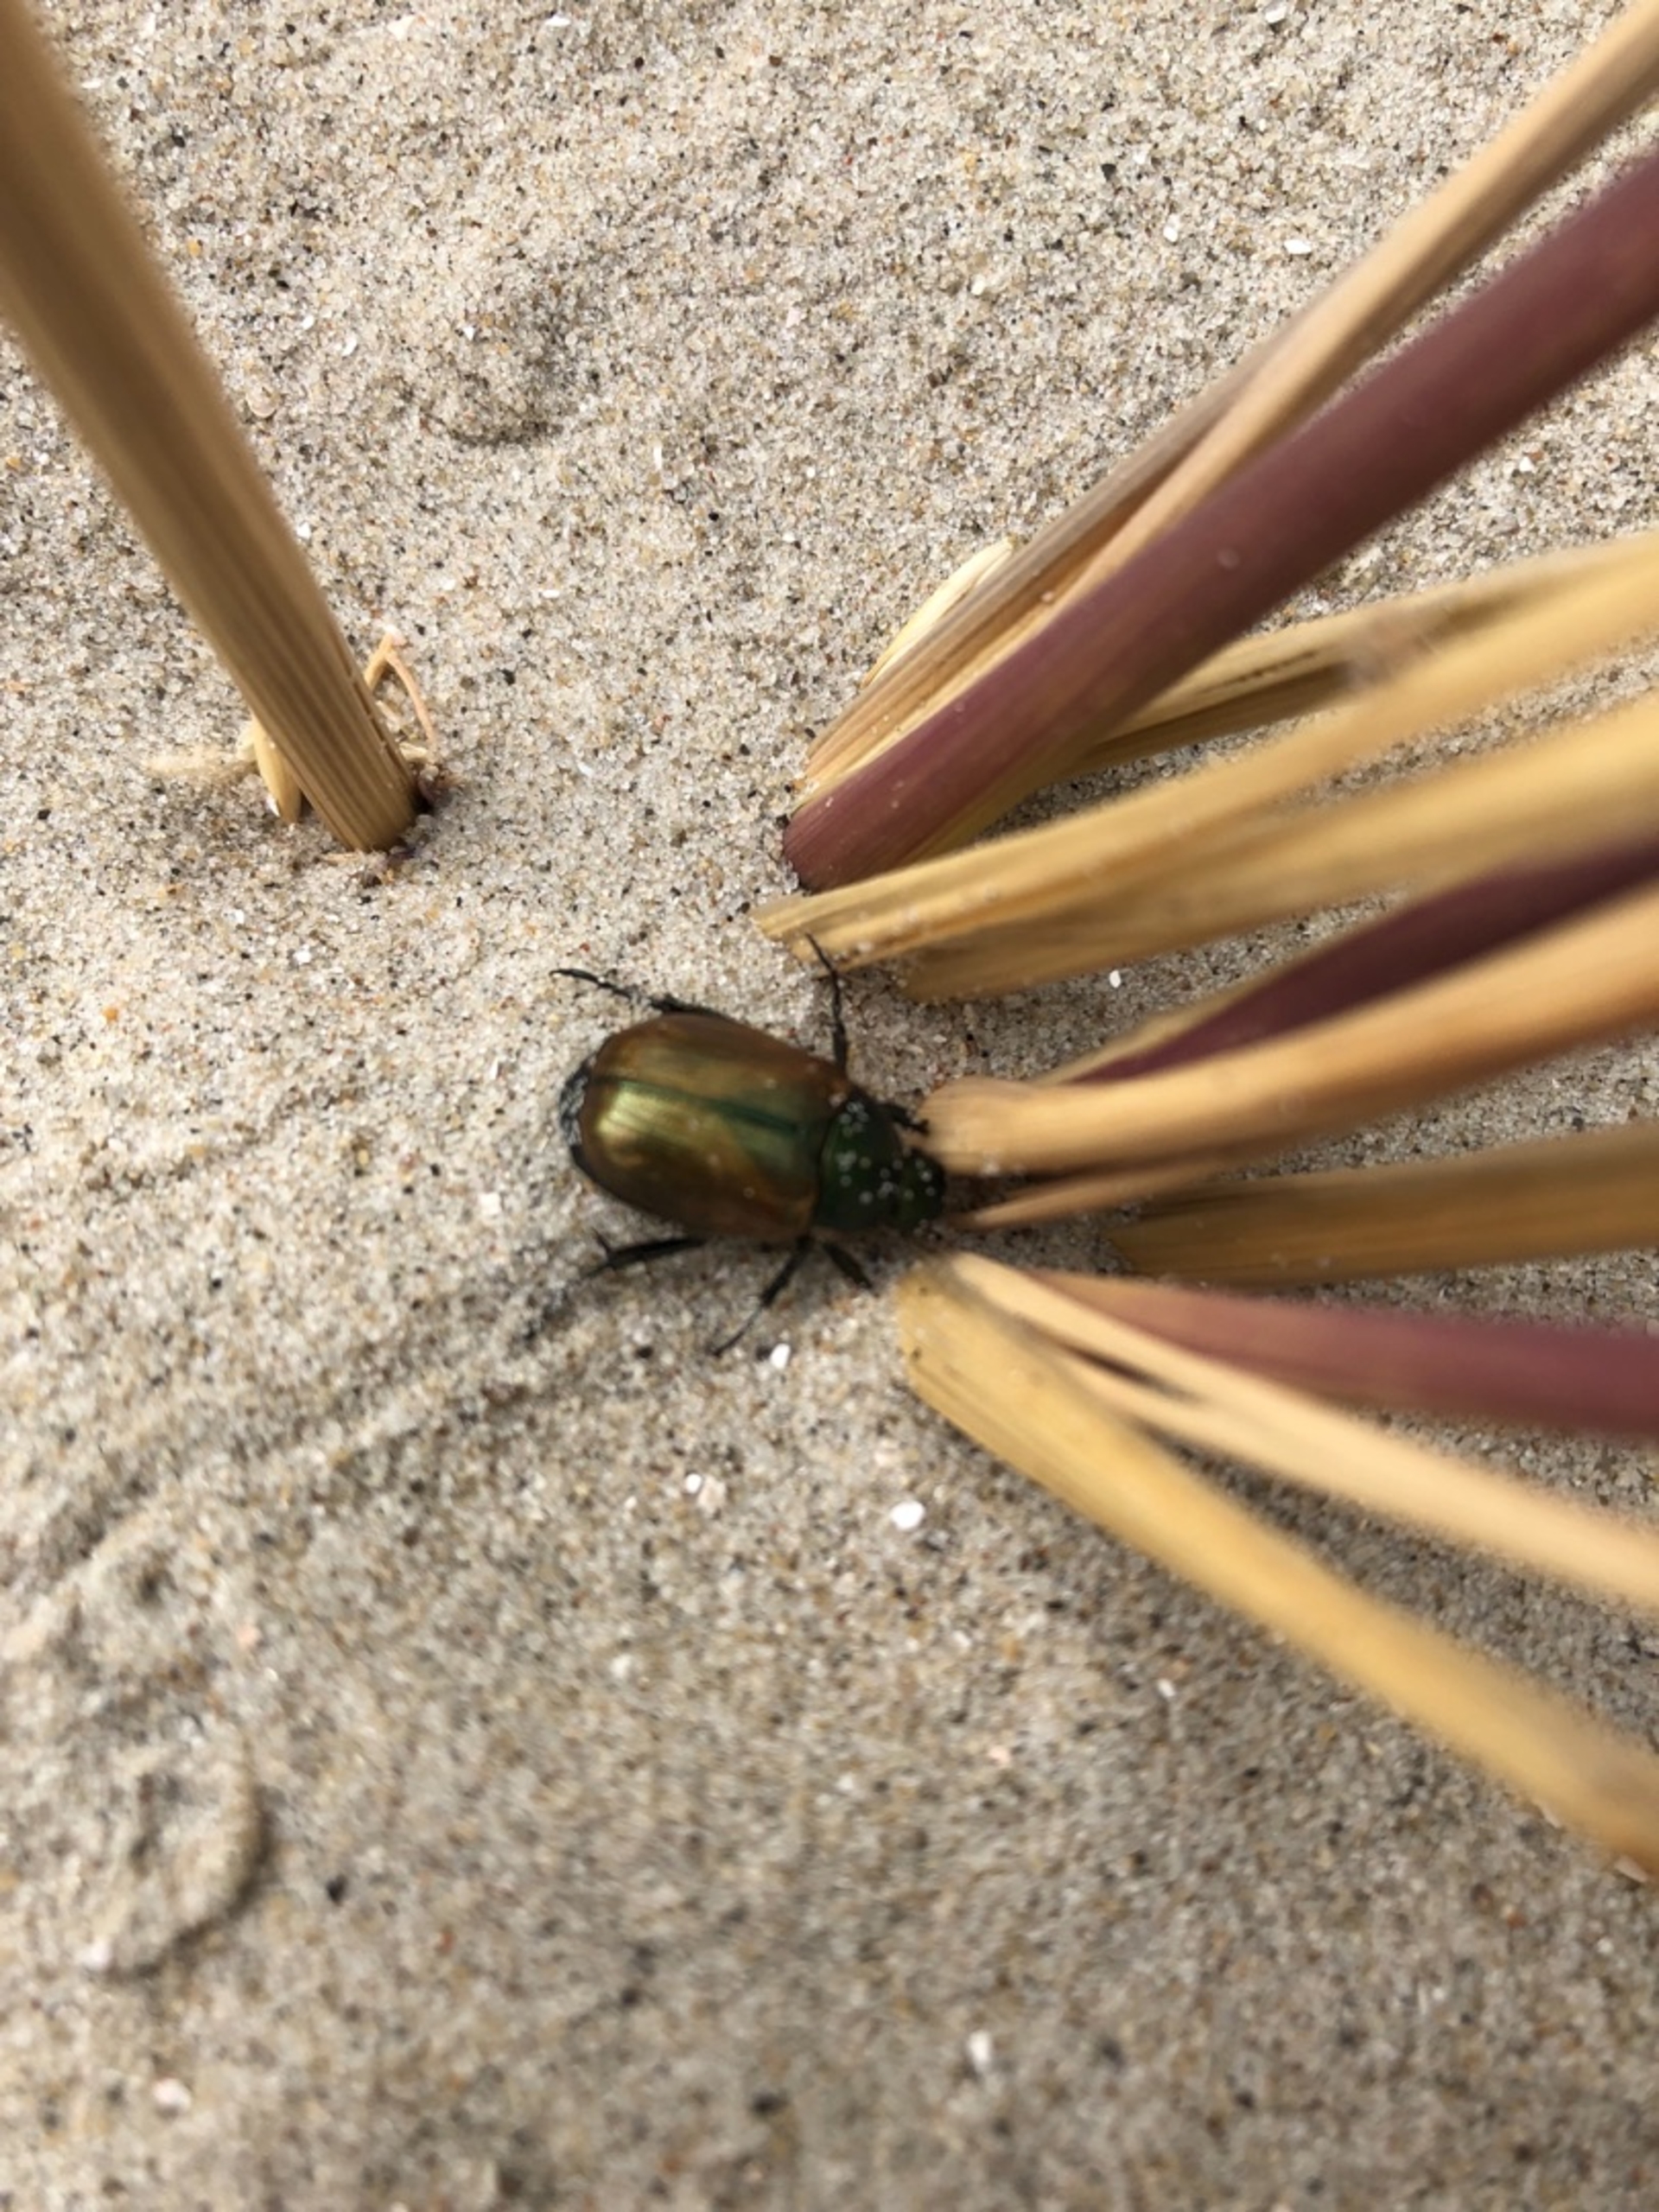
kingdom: Animalia
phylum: Arthropoda
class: Insecta
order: Coleoptera
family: Scarabaeidae
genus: Anomala
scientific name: Anomala dubia
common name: Klitoldenborre
